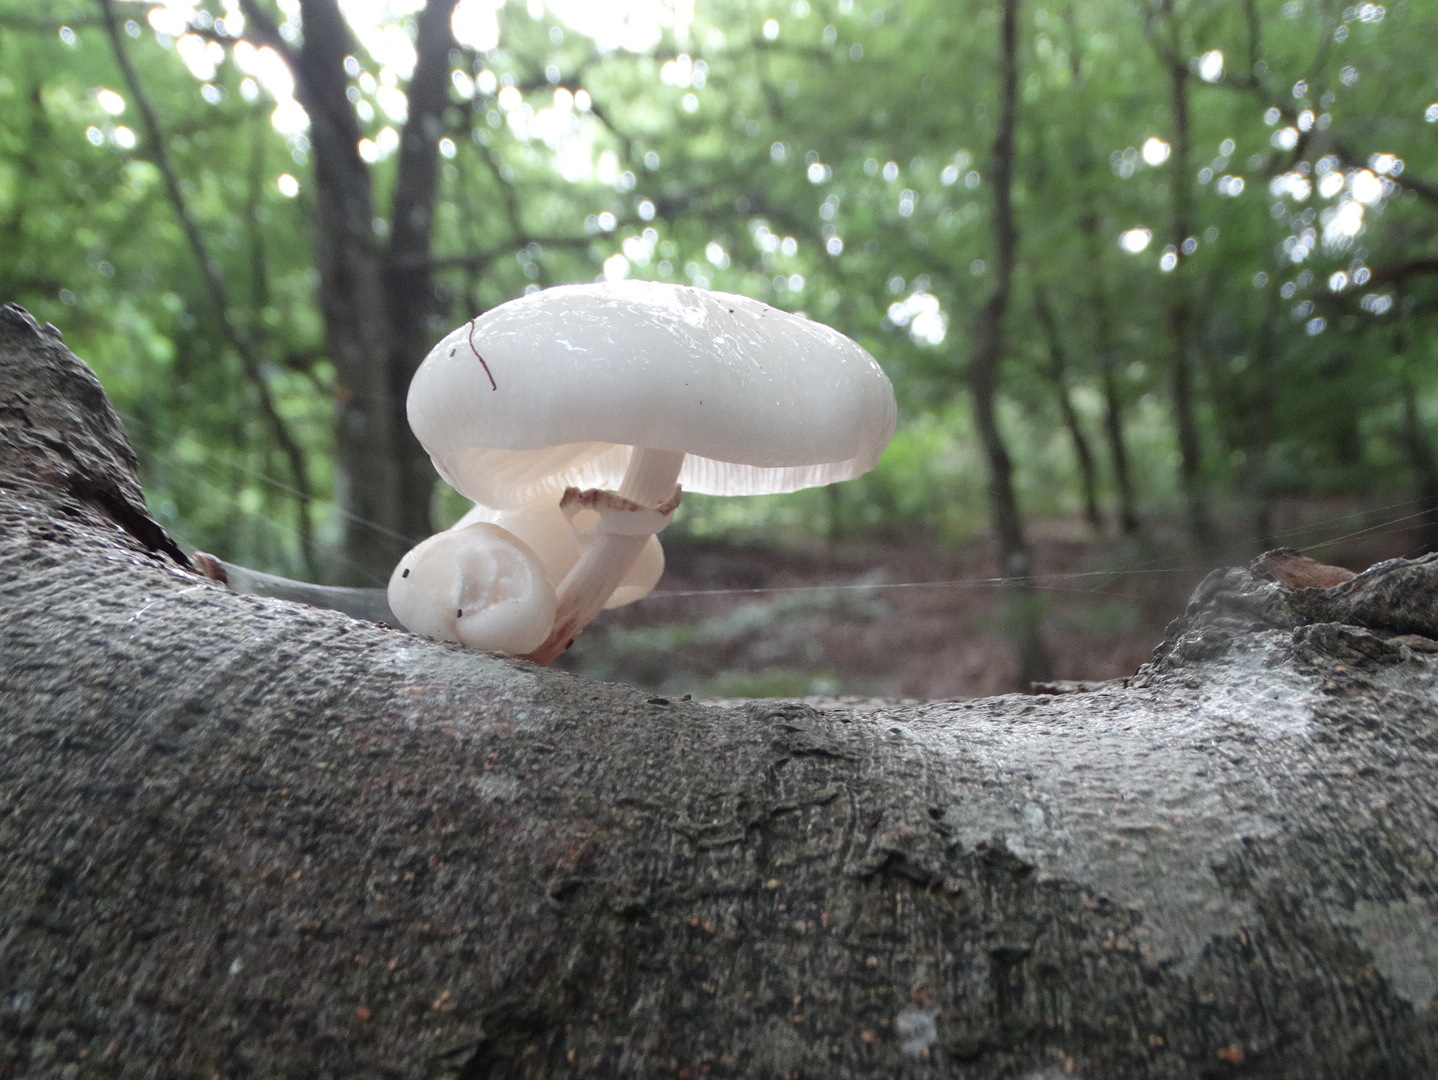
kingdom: Fungi
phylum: Basidiomycota
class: Agaricomycetes
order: Agaricales
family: Physalacriaceae
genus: Mucidula
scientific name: Mucidula mucida
